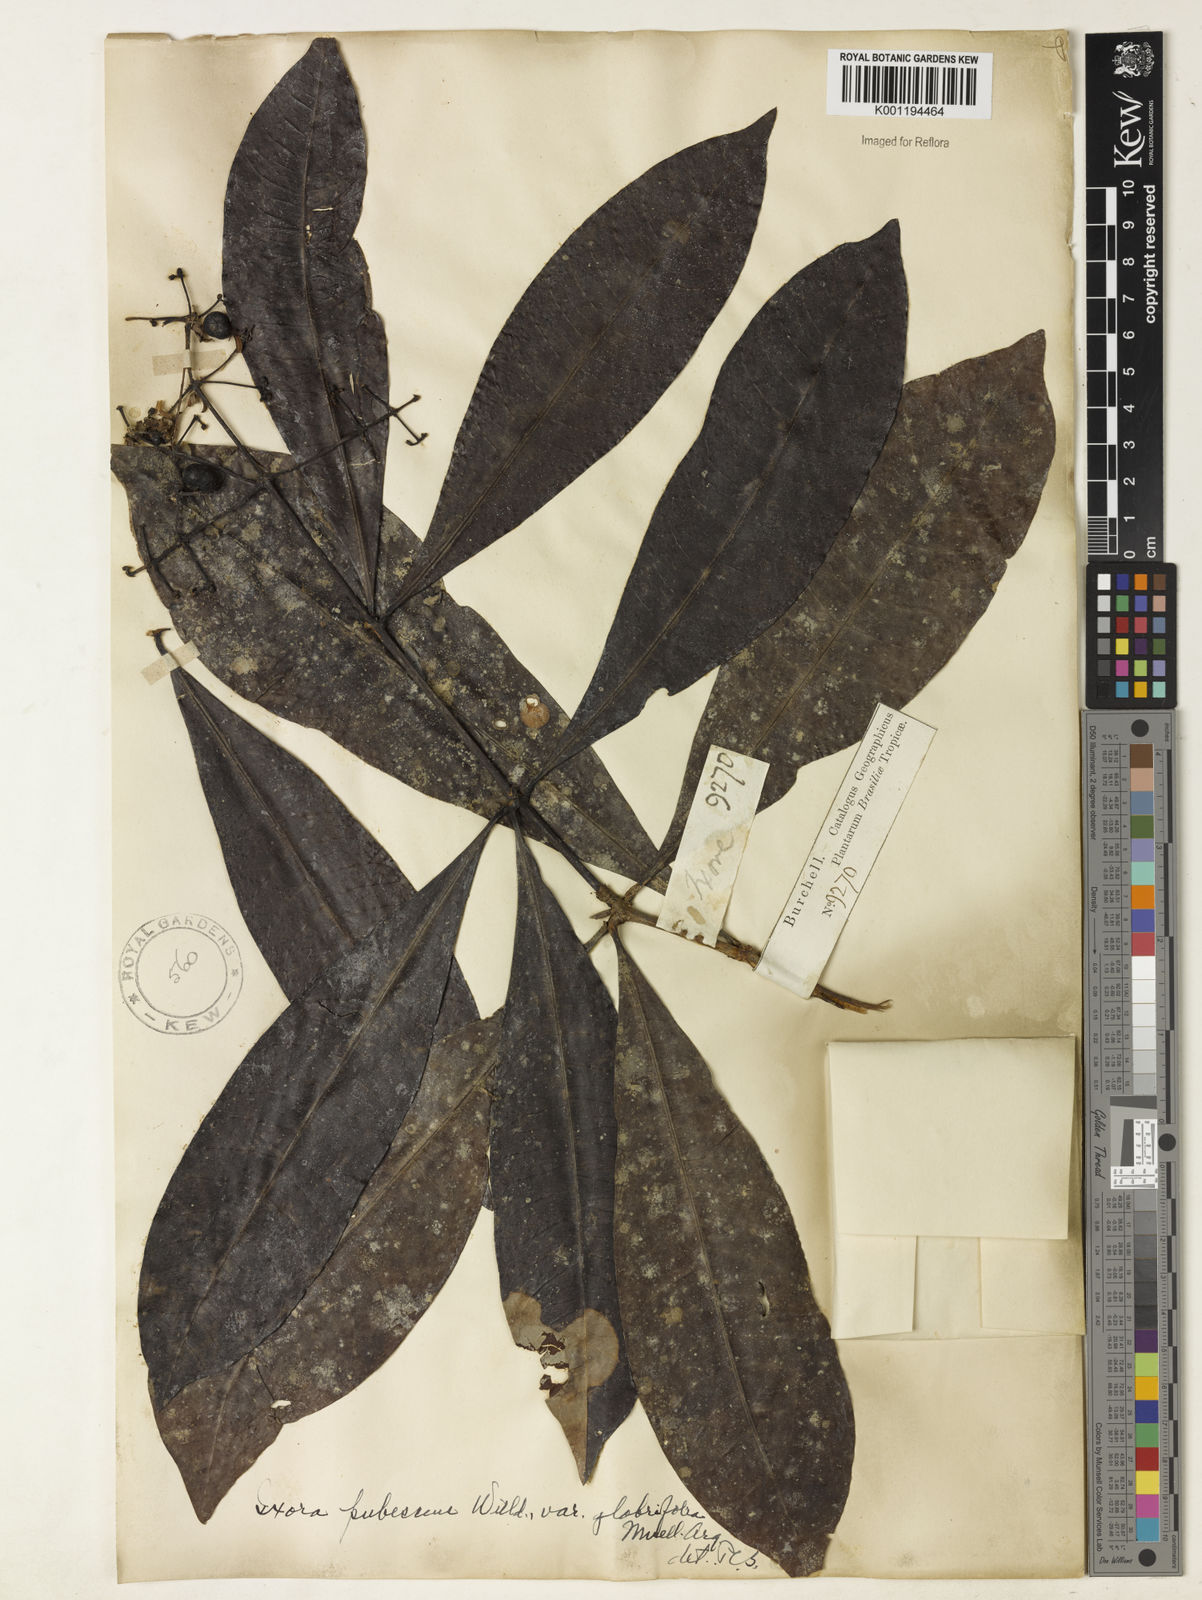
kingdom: Plantae
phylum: Tracheophyta
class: Magnoliopsida
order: Gentianales
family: Rubiaceae
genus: Ixora
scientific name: Ixora
